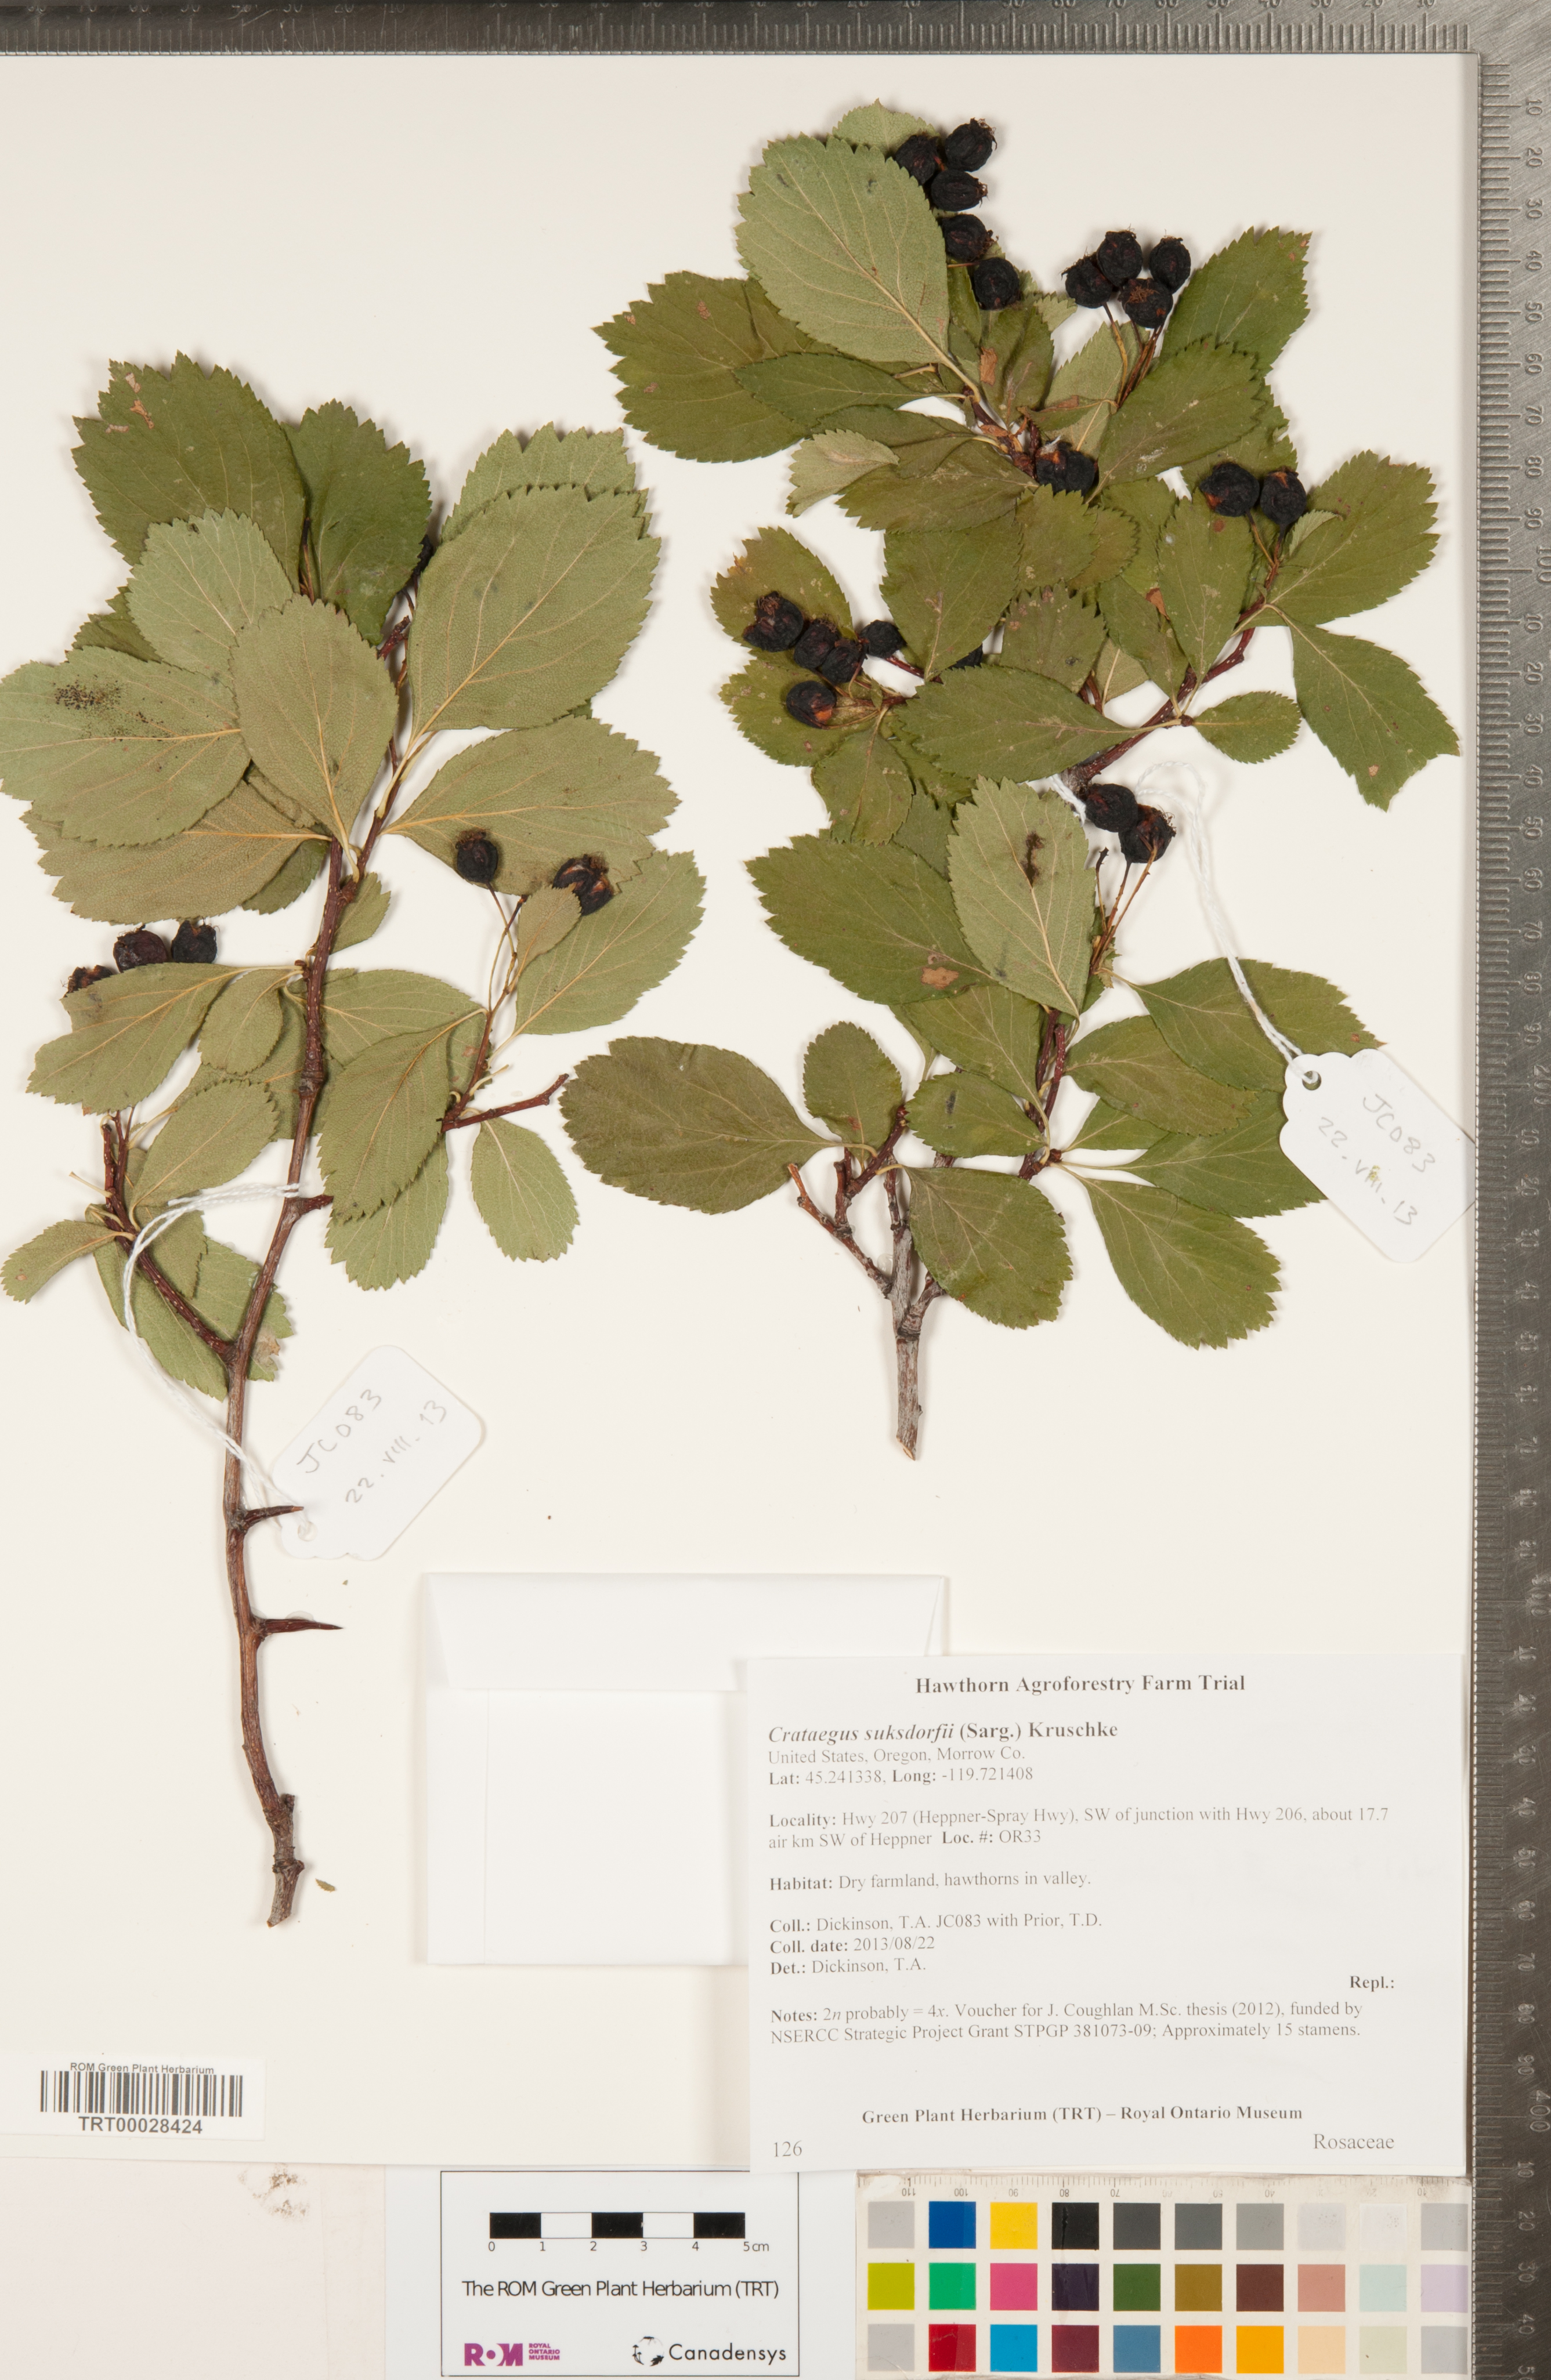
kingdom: Plantae
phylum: Tracheophyta
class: Magnoliopsida
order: Rosales
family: Rosaceae
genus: Crataegus
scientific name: Crataegus gaylussacia
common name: Huckleberry hawthorn
